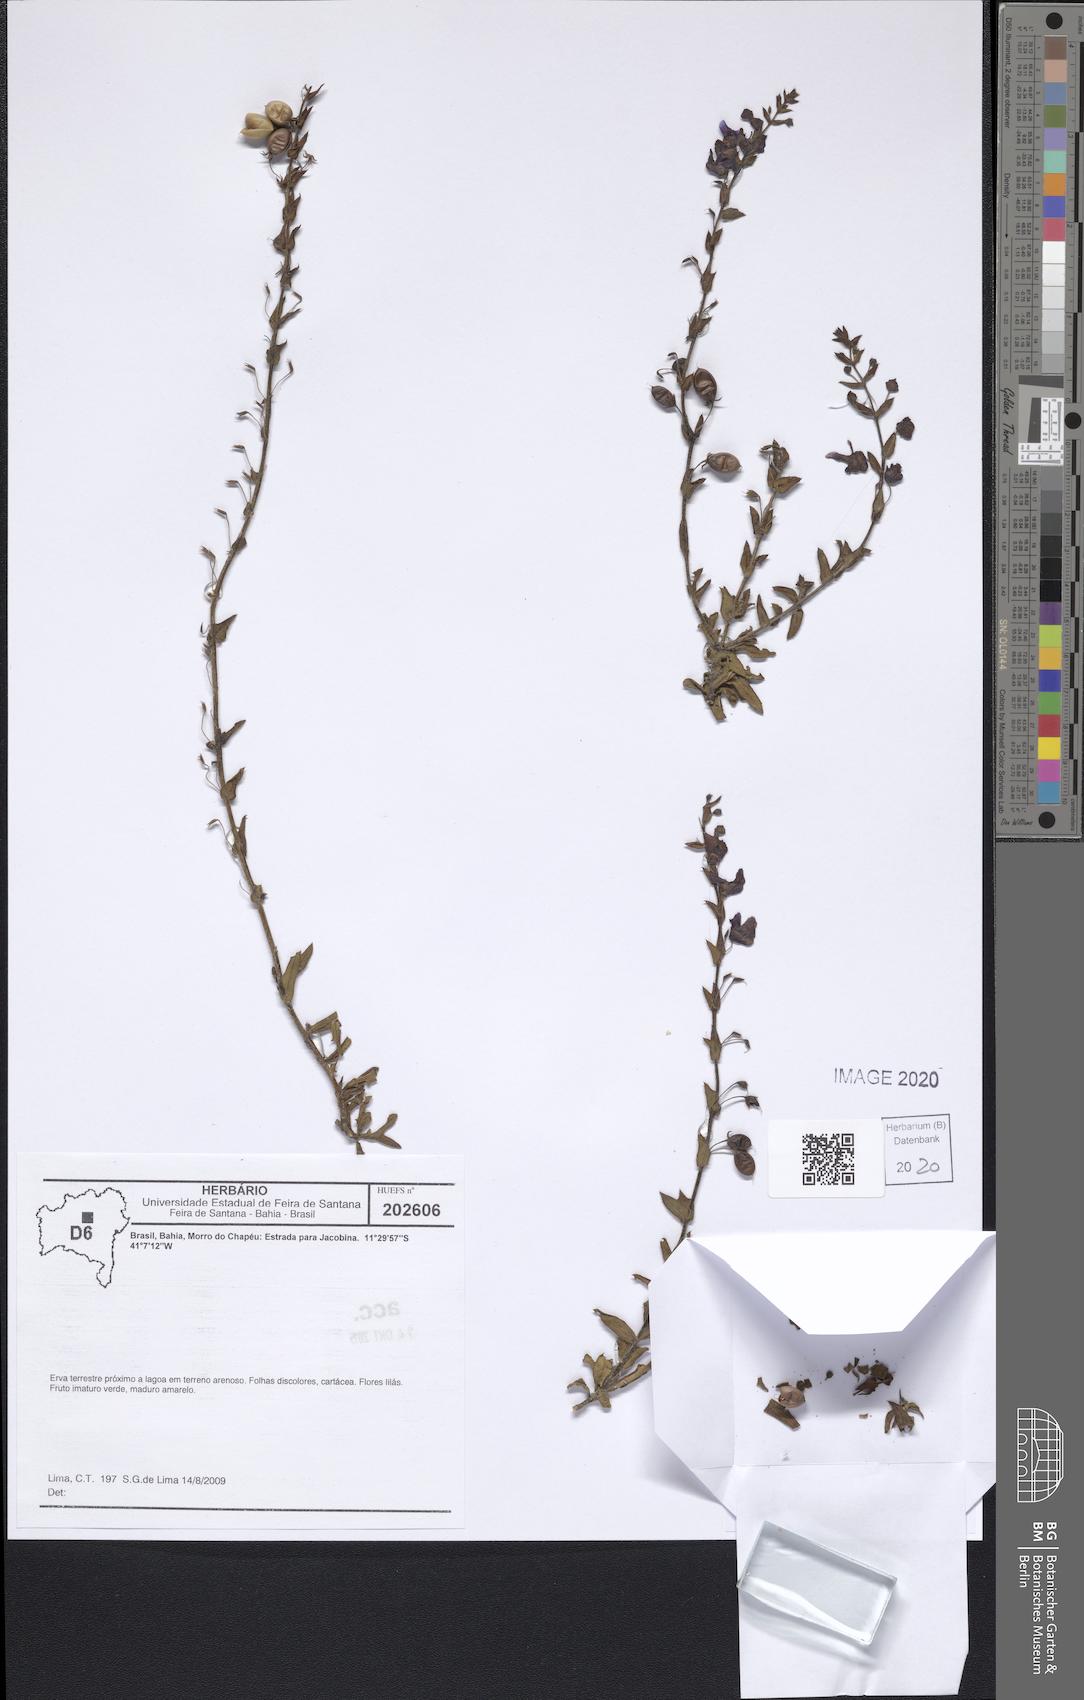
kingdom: Plantae
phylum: Tracheophyta
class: Magnoliopsida
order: Lamiales
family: Scrophulariaceae
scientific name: Scrophulariaceae
